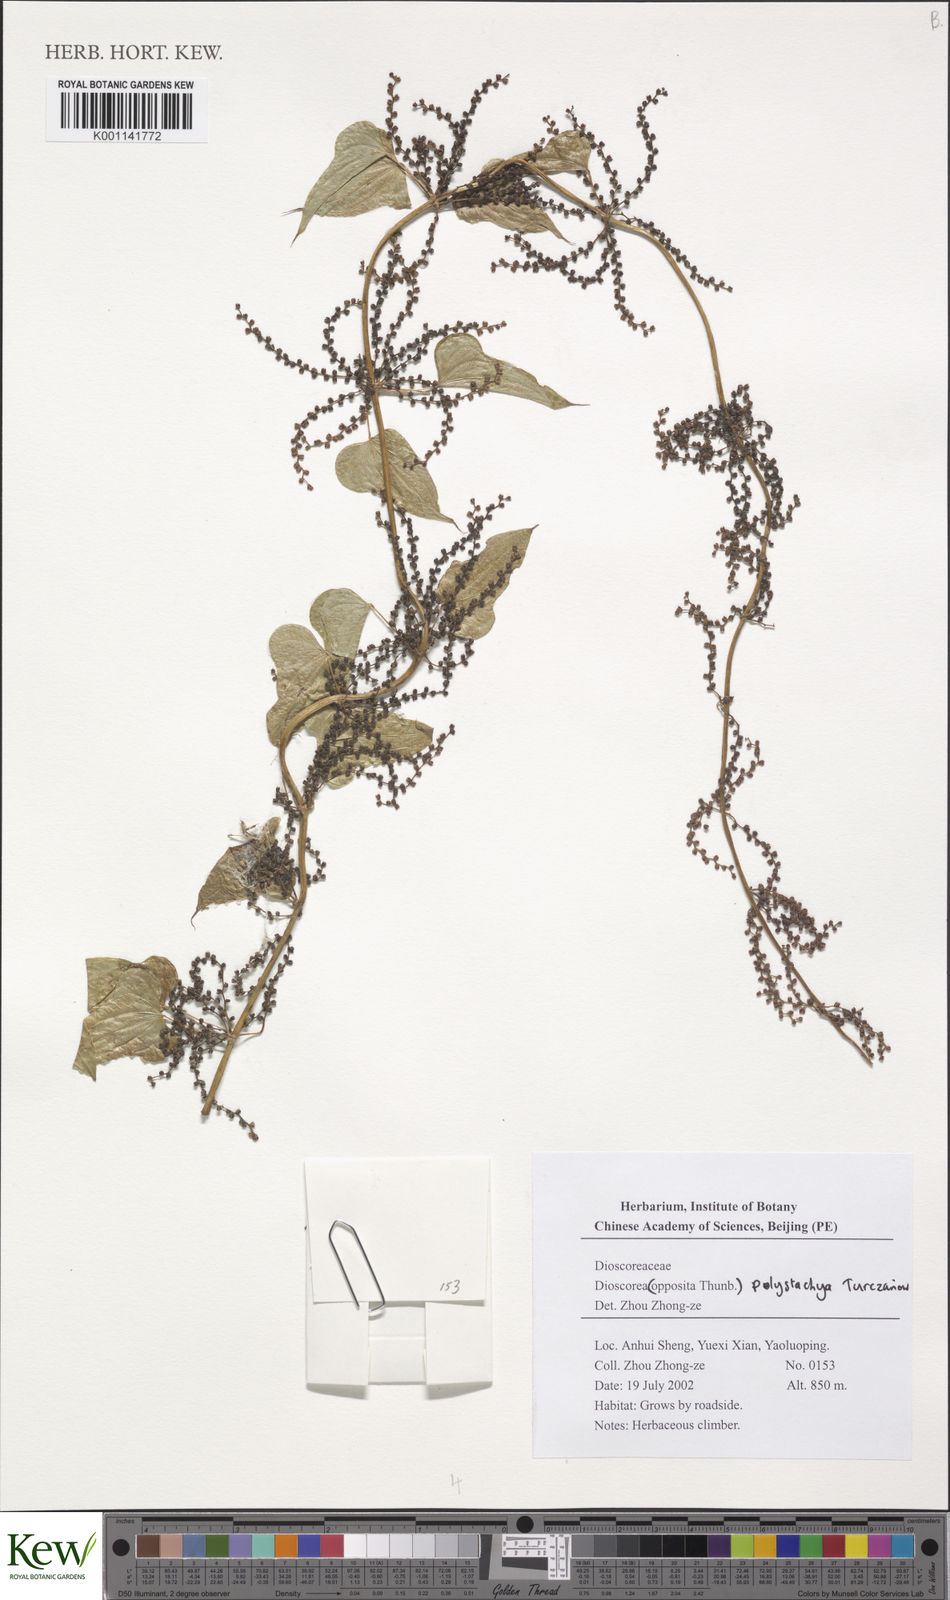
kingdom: Plantae
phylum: Tracheophyta
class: Liliopsida
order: Dioscoreales
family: Dioscoreaceae
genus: Dioscorea
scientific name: Dioscorea oppositifolia
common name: Chinese yam
